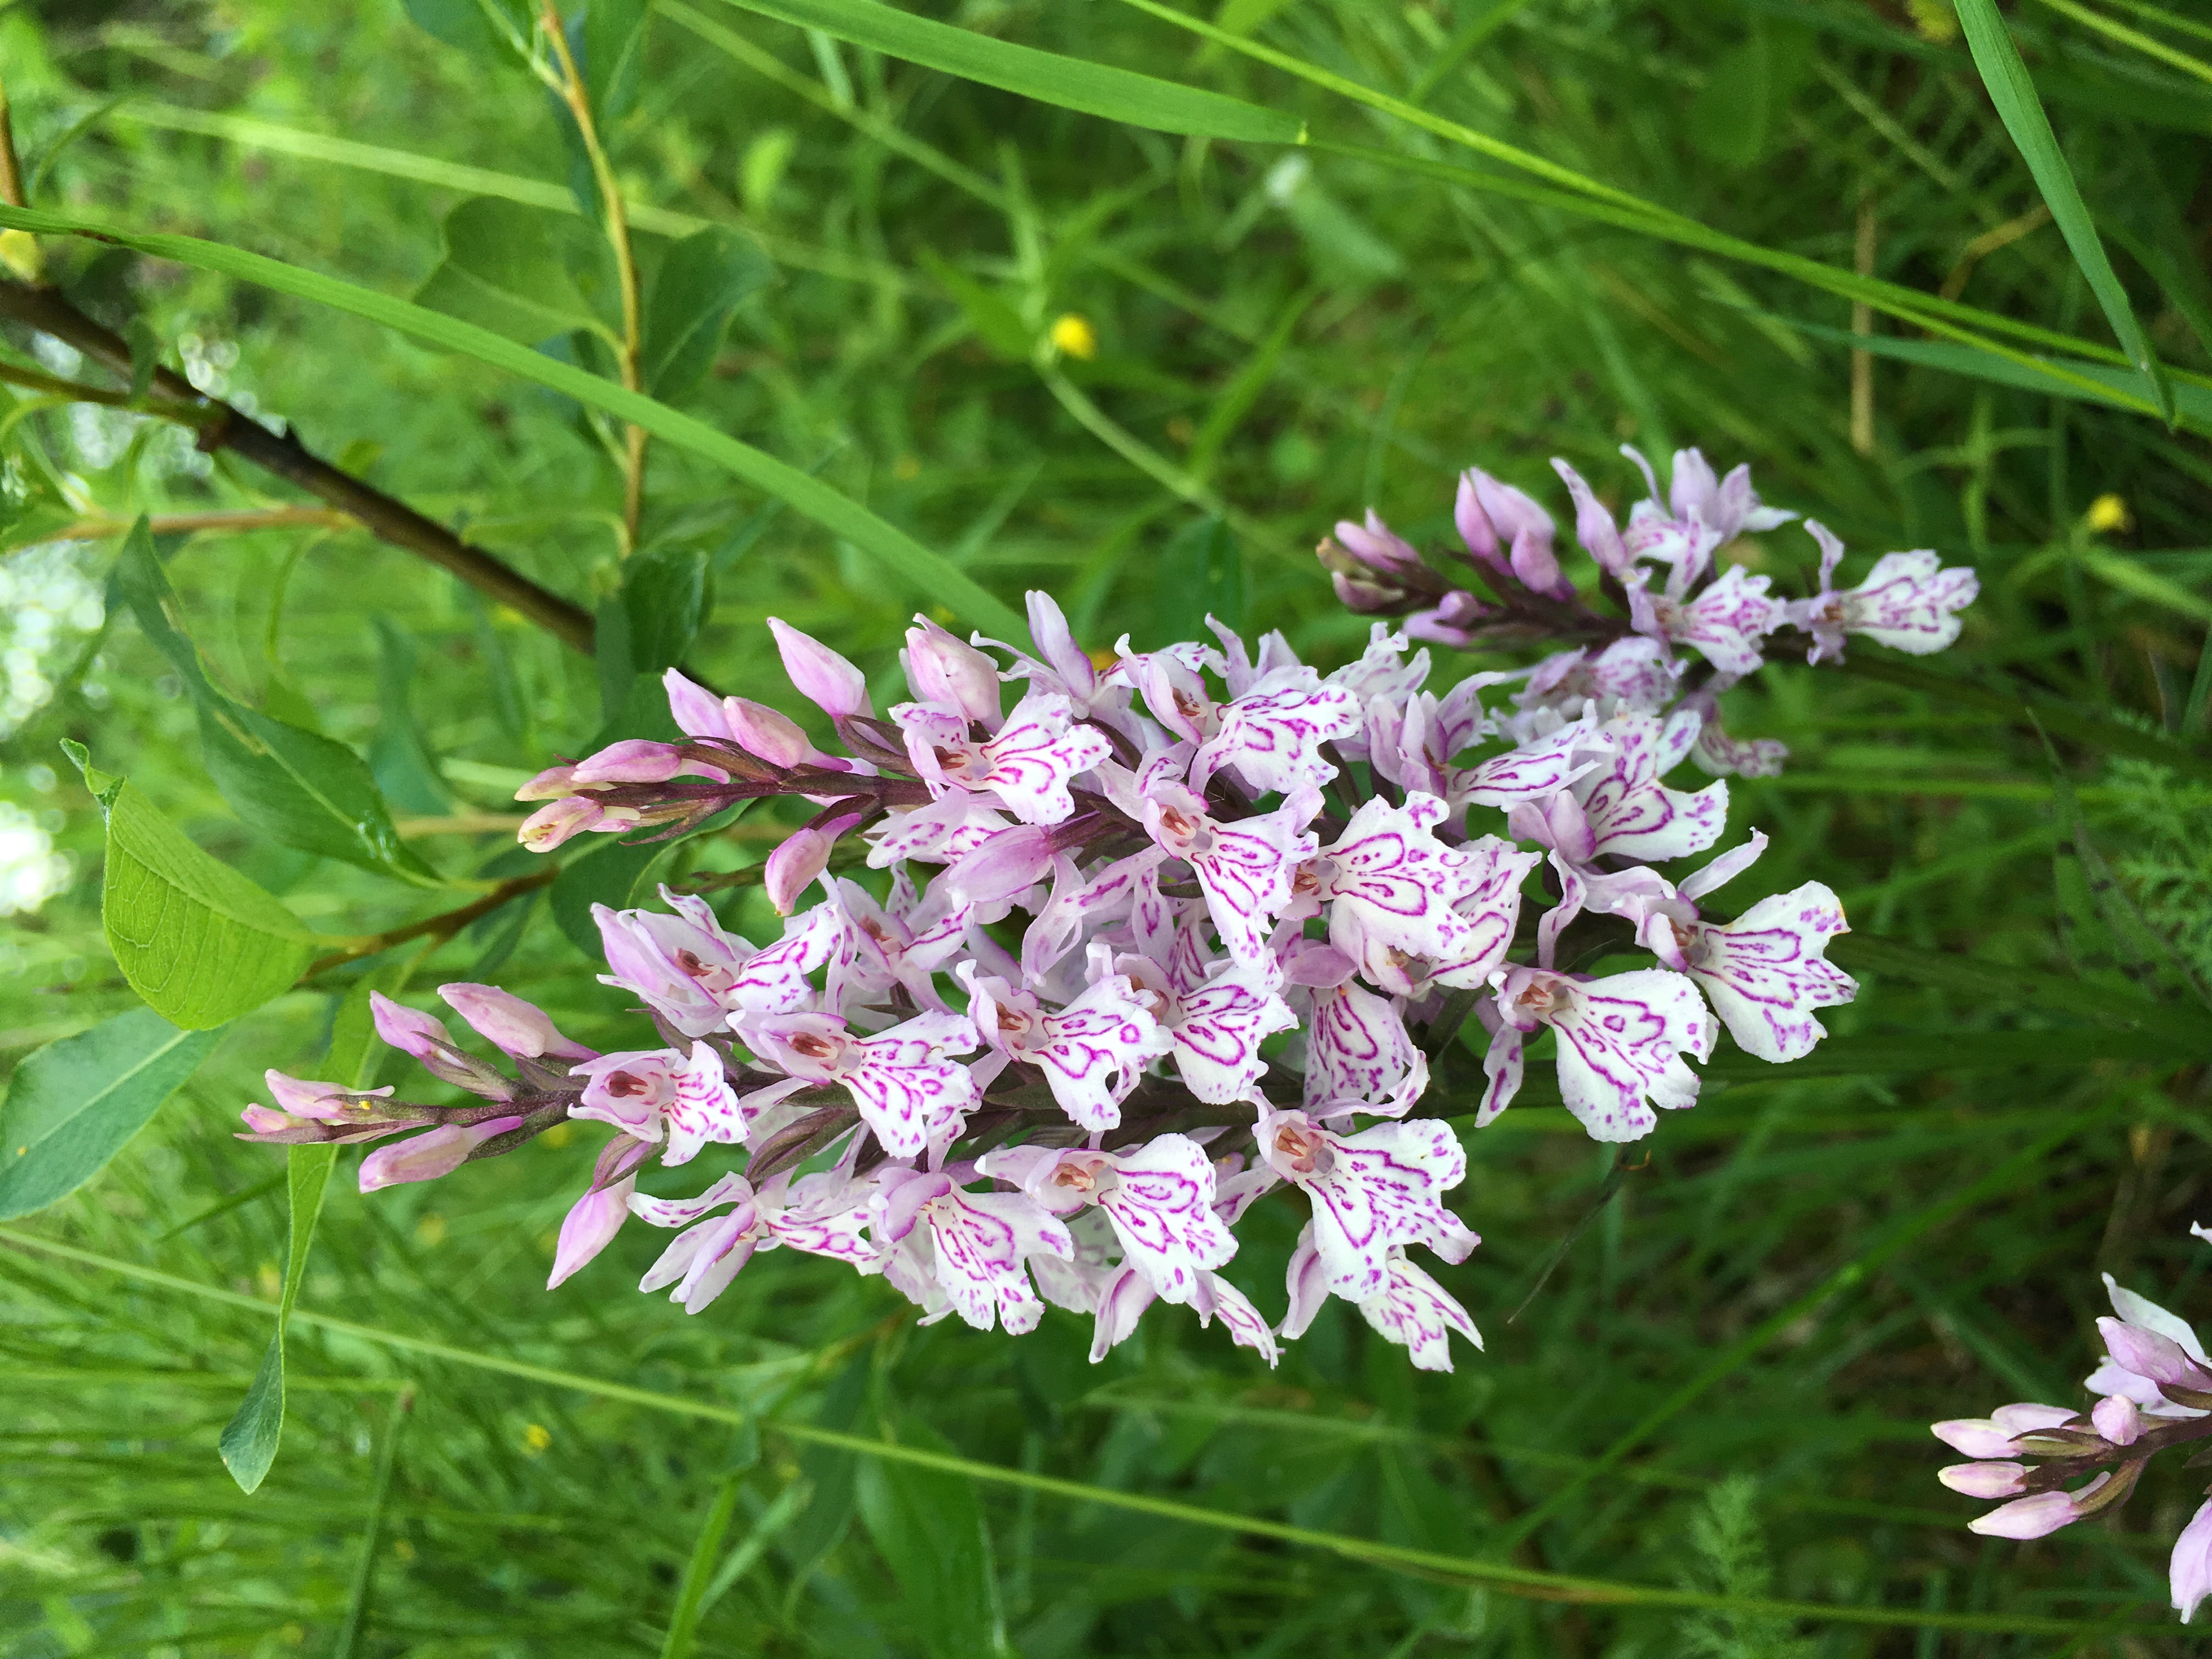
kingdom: Plantae
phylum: Tracheophyta
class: Liliopsida
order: Asparagales
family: Orchidaceae
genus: Dactylorhiza
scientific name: Dactylorhiza maculata
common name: Heath spotted-orchid
